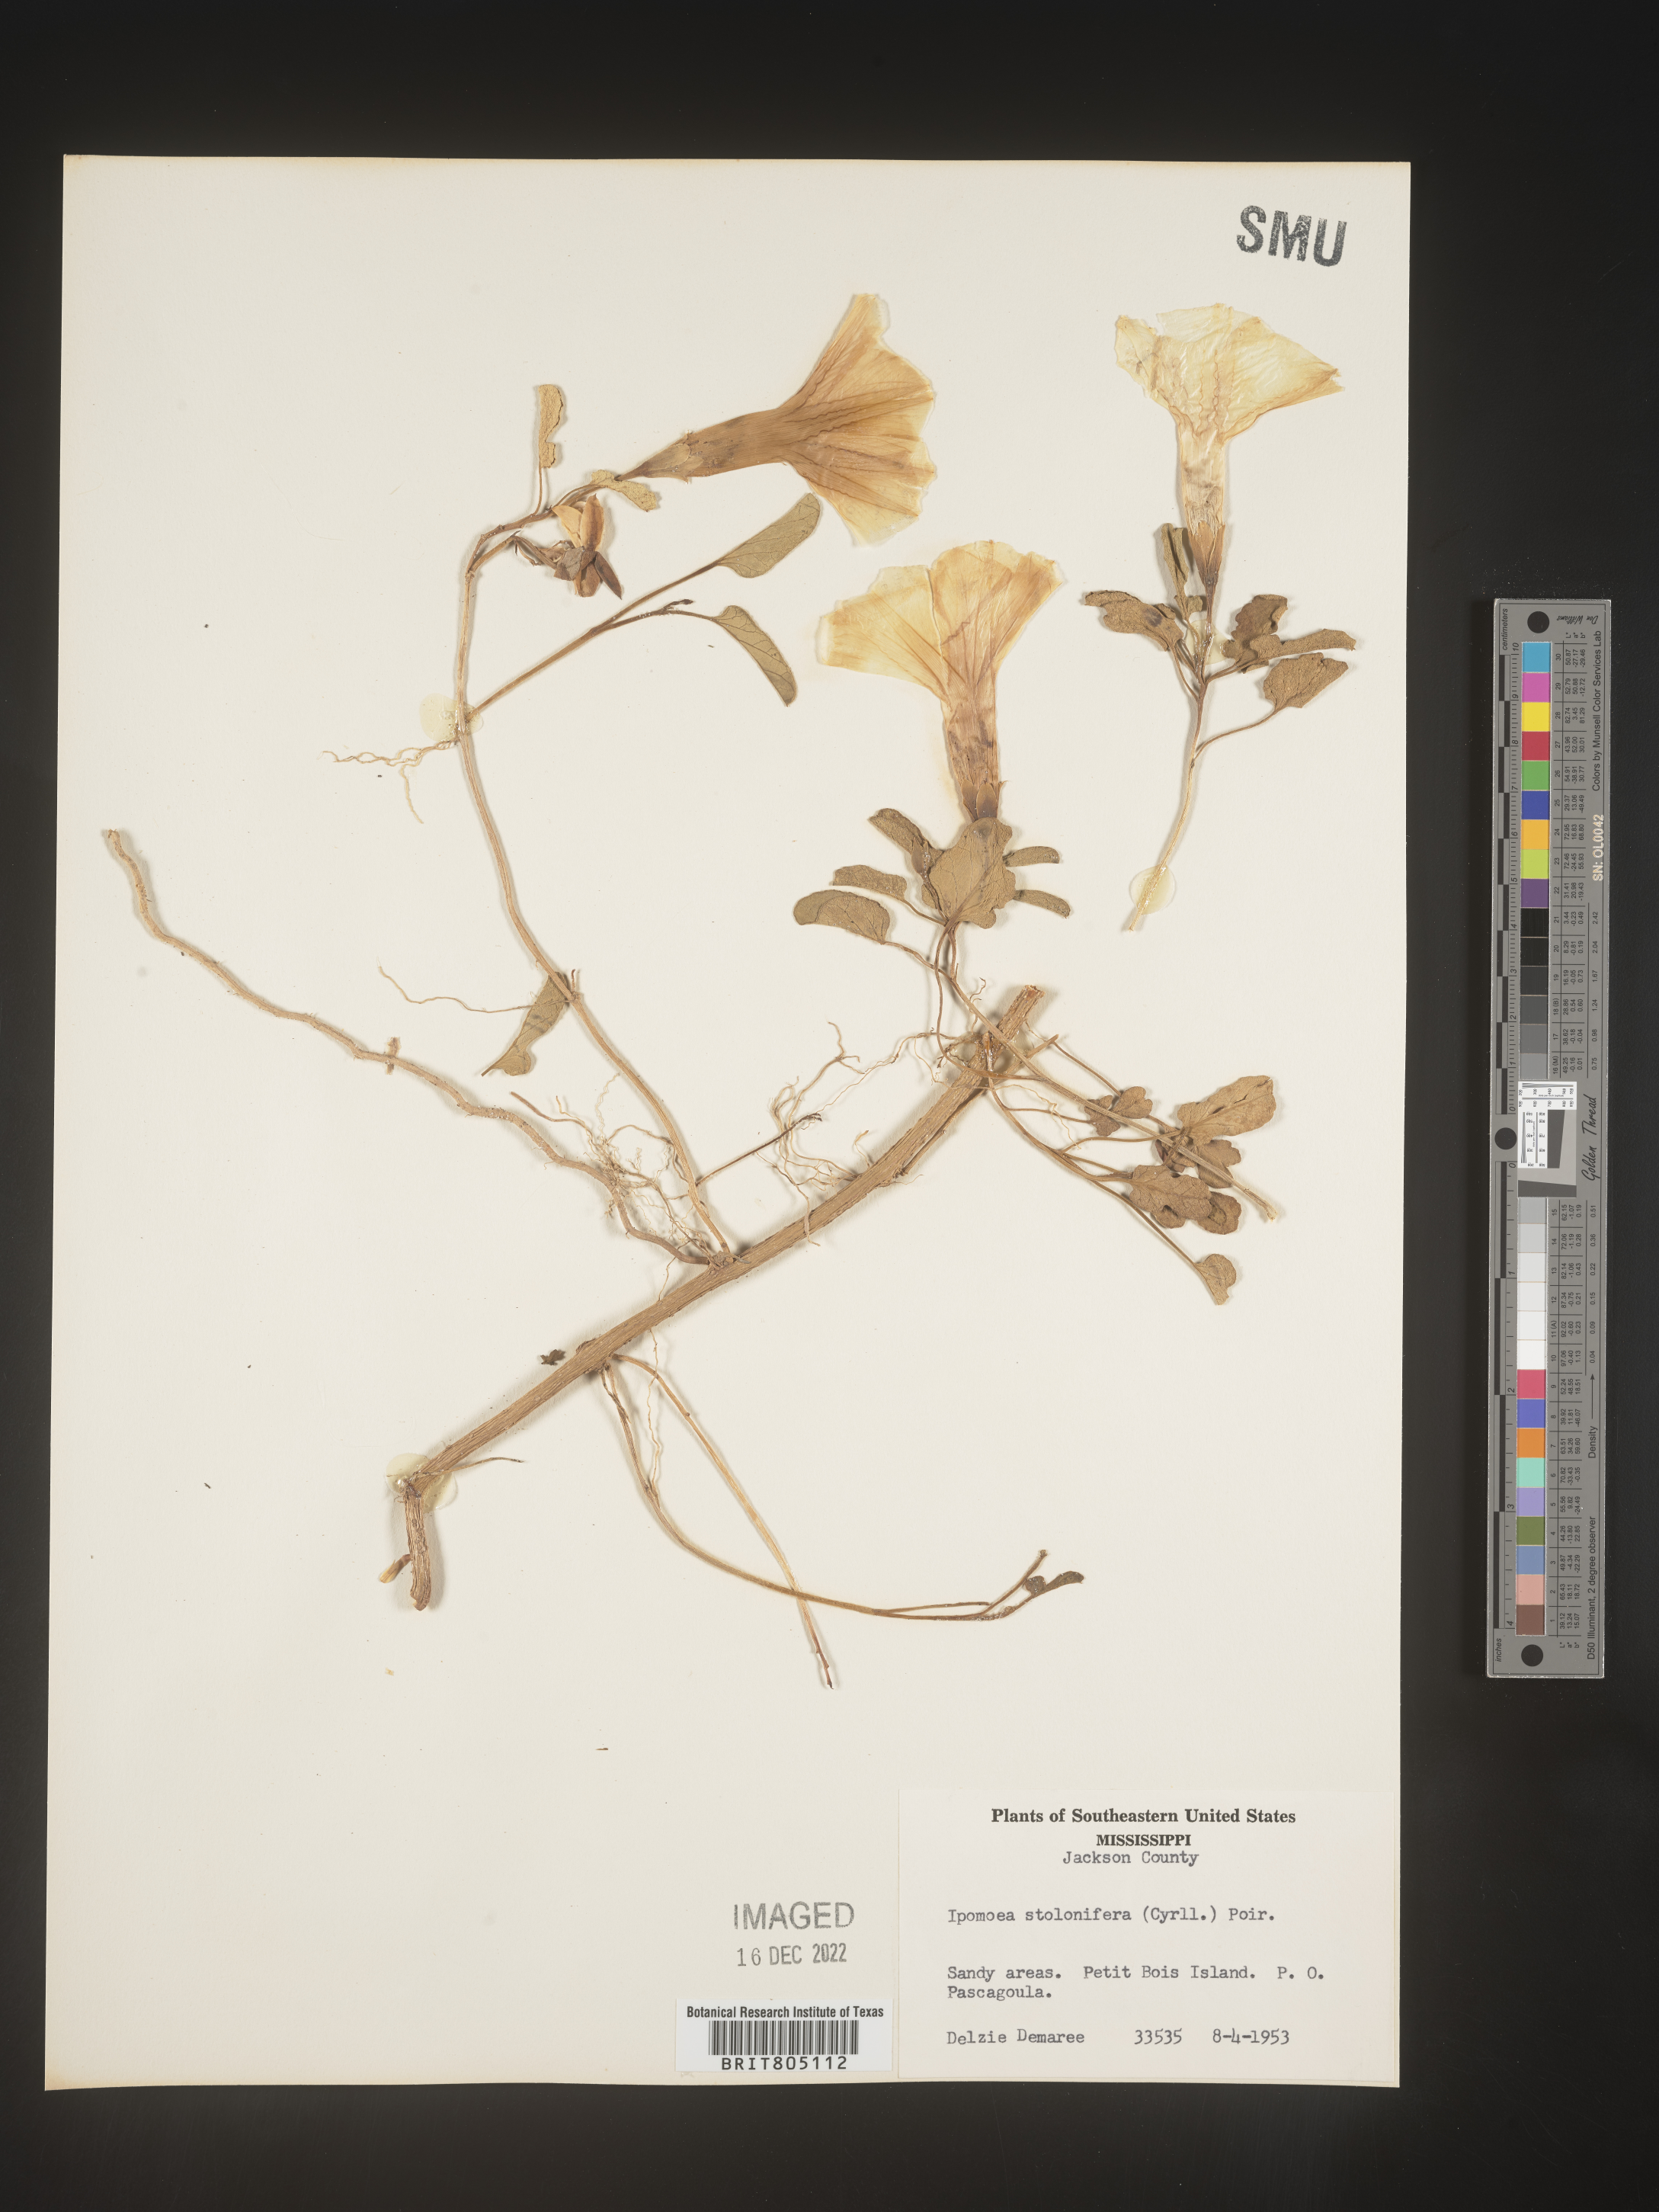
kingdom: Plantae
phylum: Tracheophyta
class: Magnoliopsida
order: Solanales
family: Convolvulaceae
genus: Ipomoea
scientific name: Ipomoea imperati
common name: Fiddle-leaf morning-glory
